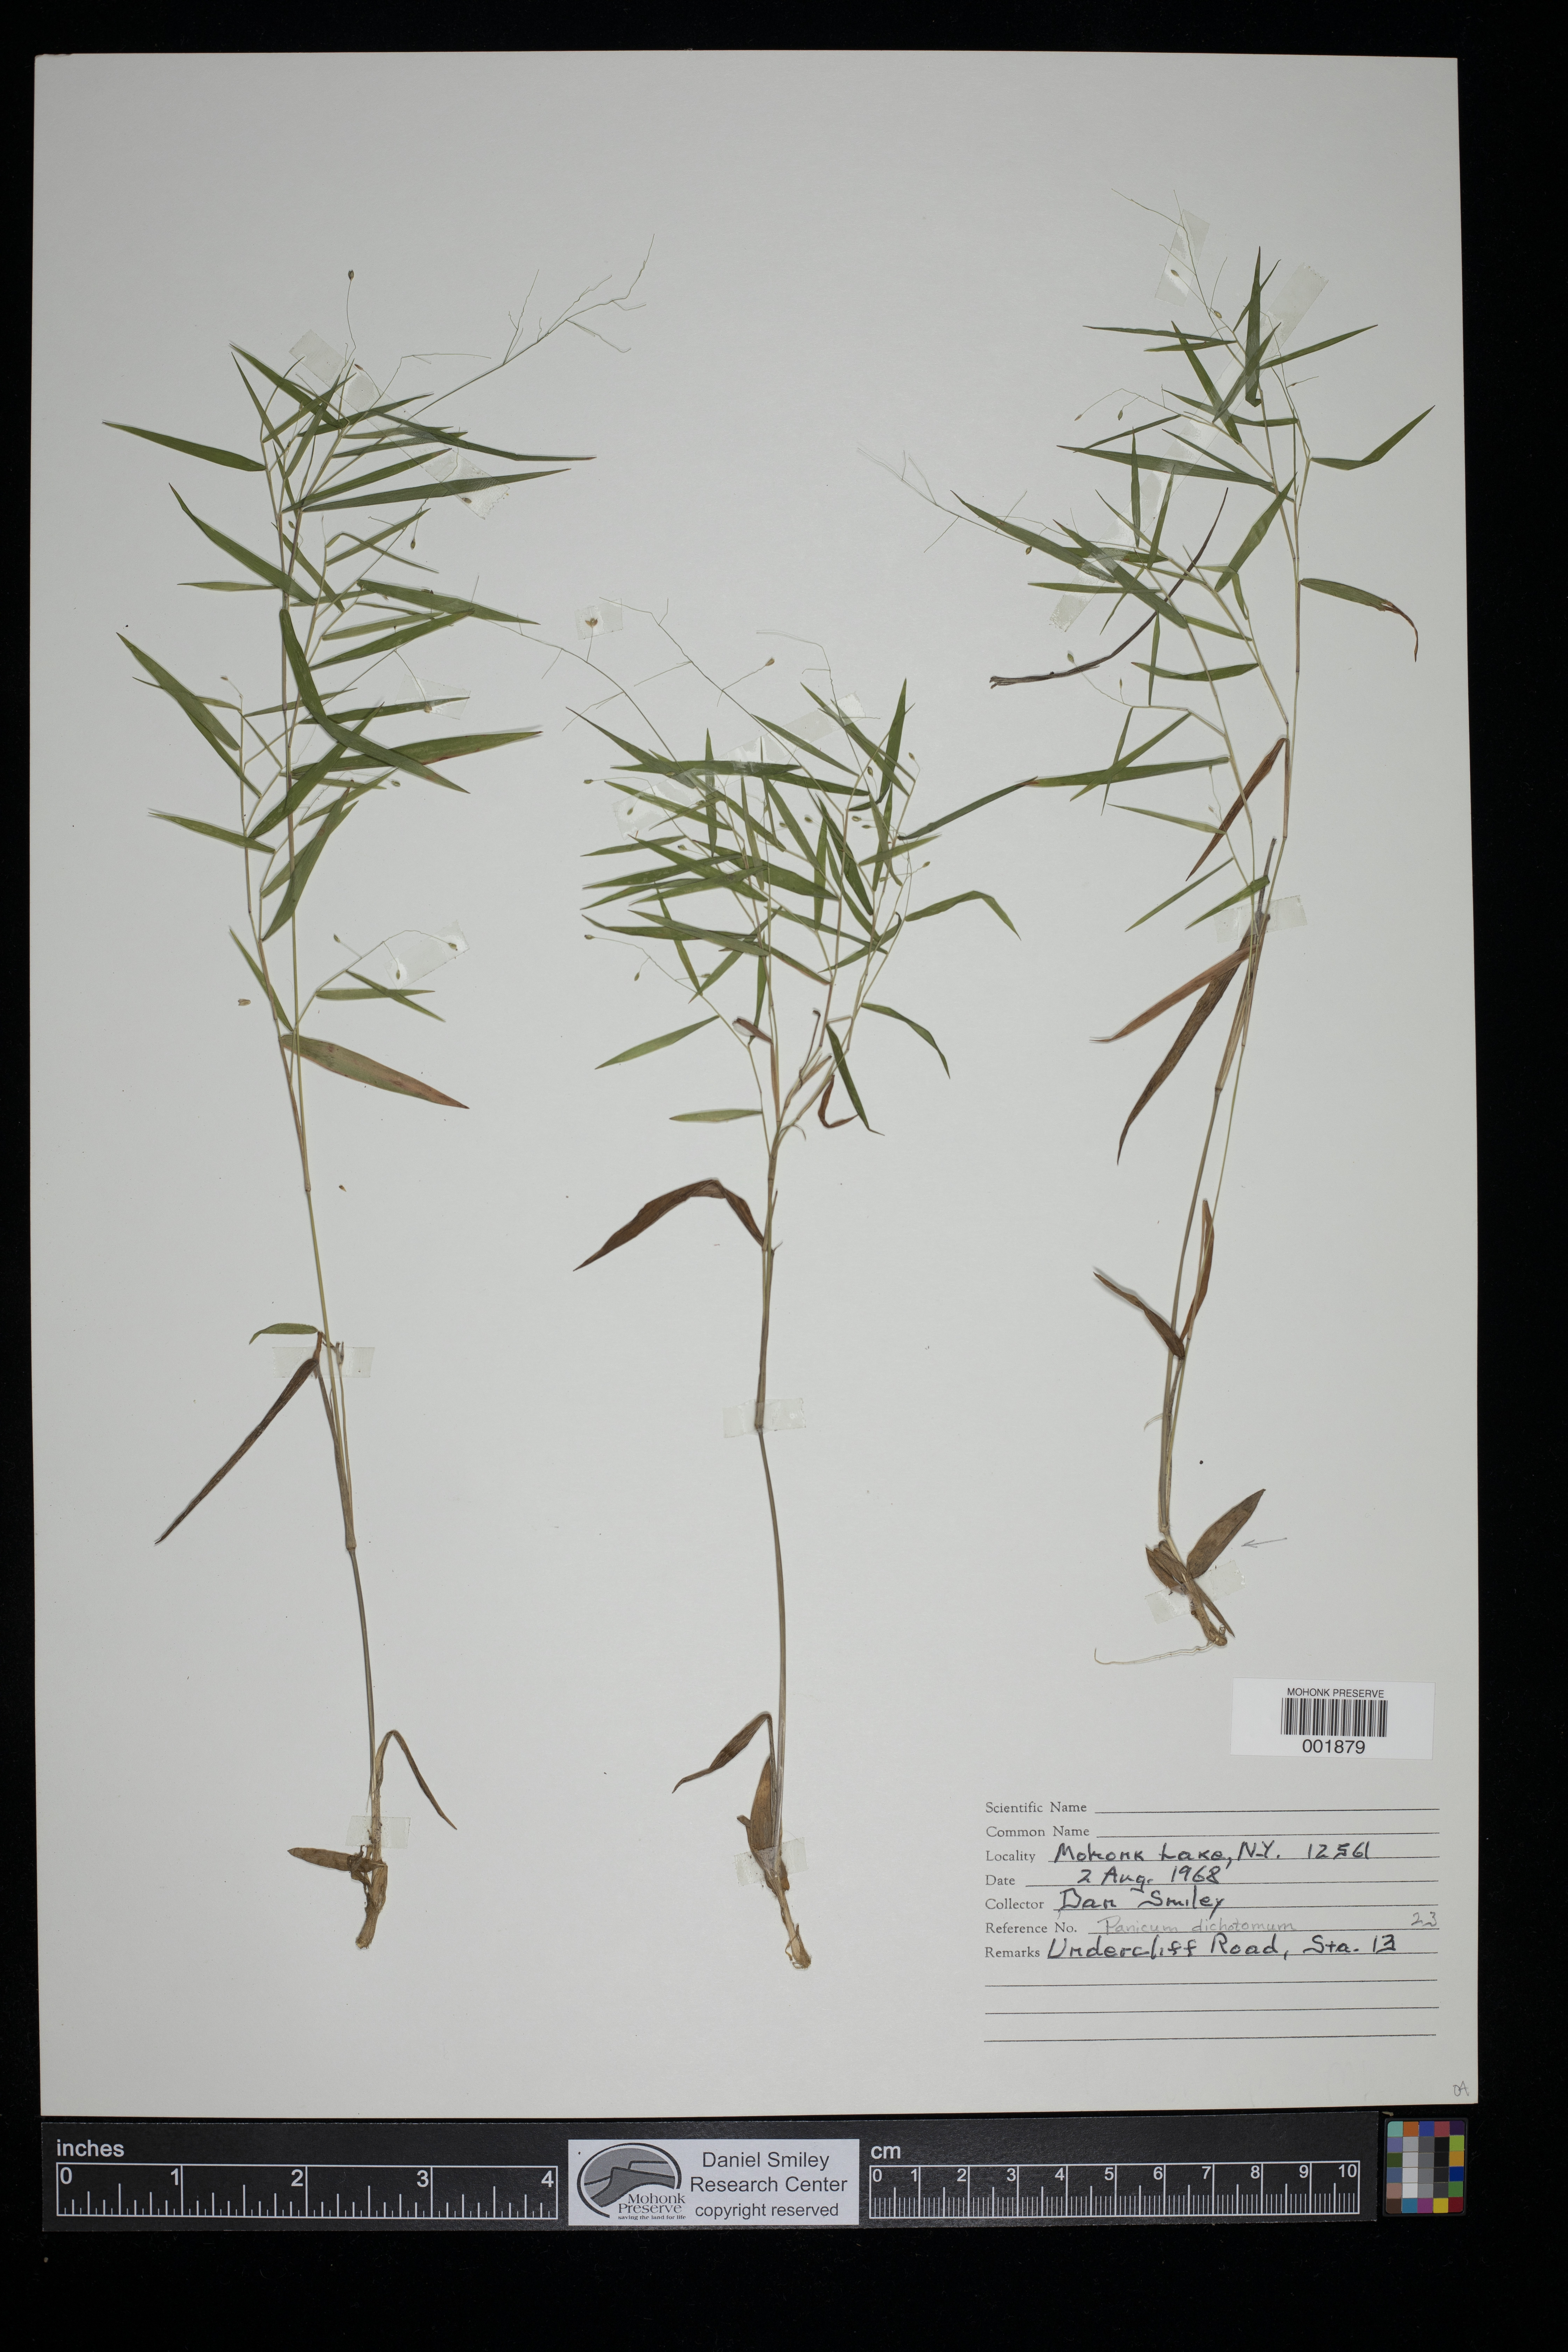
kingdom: Plantae
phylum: Tracheophyta
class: Liliopsida
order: Poales
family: Poaceae
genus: Dichanthelium
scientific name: Dichanthelium dichotomum
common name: Cypress panicgrass
